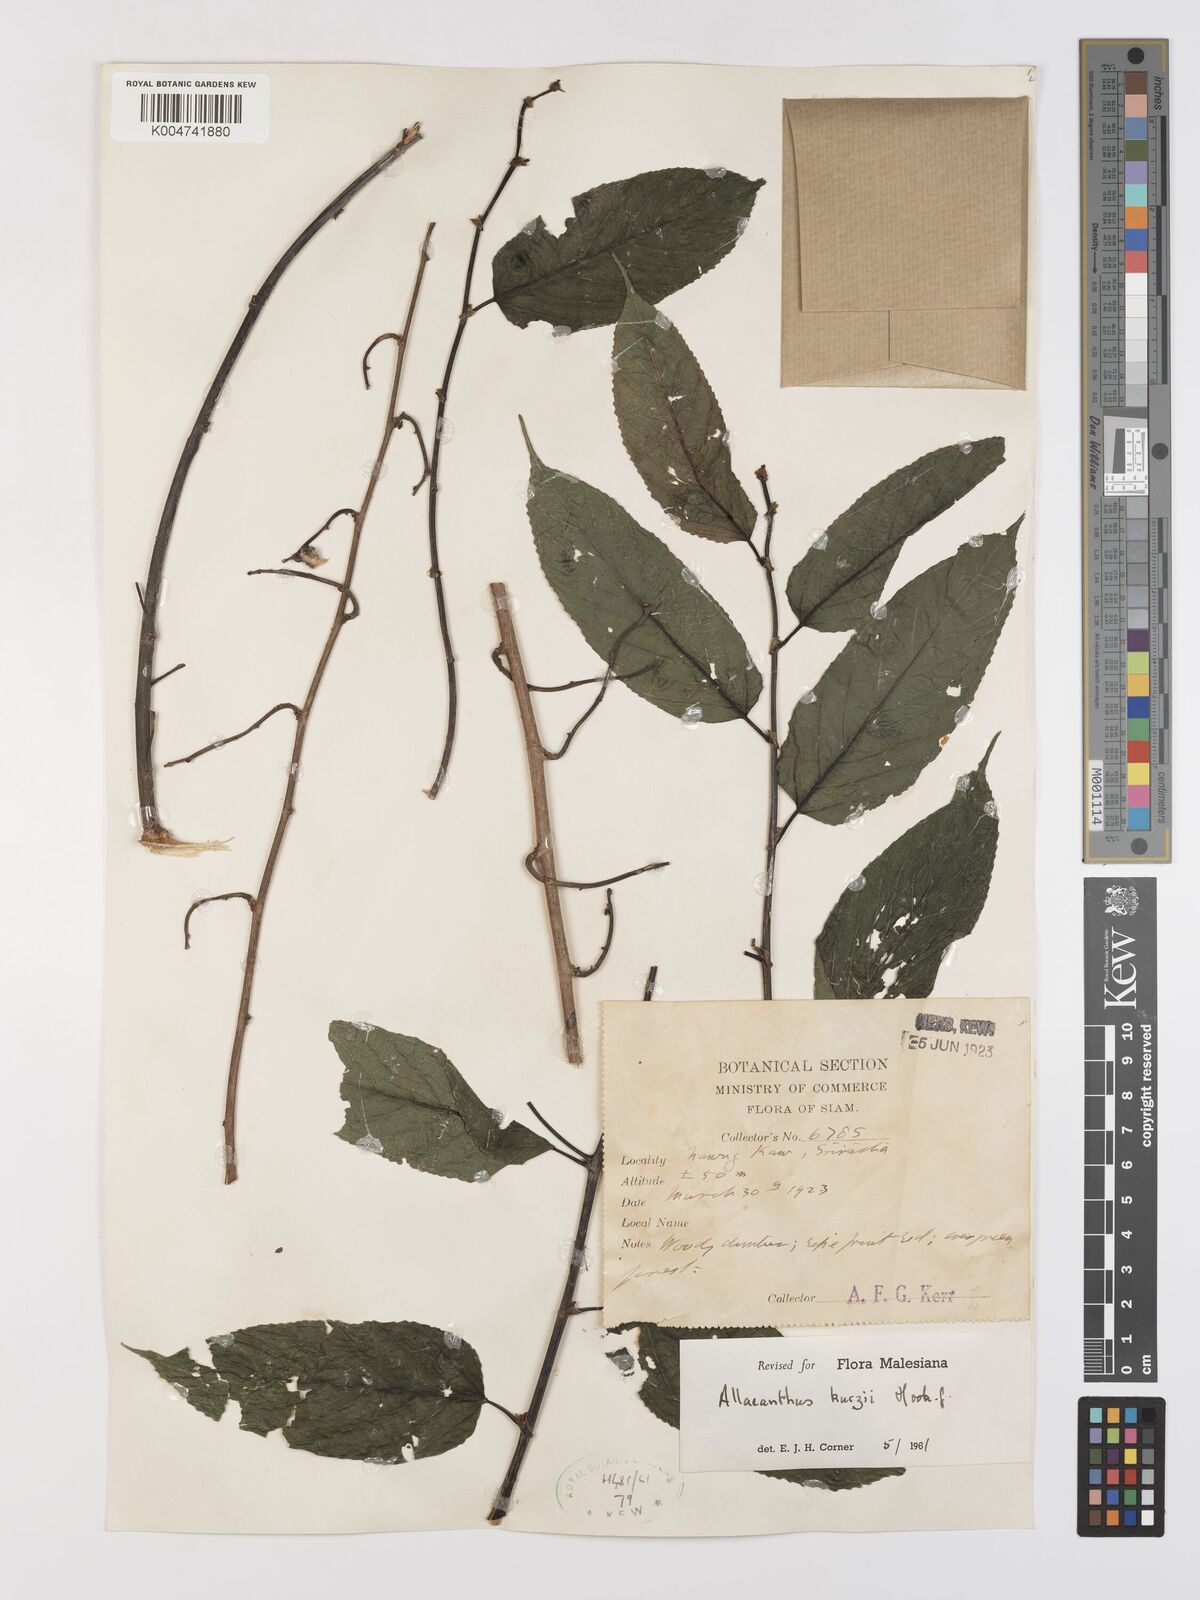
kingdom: Plantae
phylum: Tracheophyta
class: Magnoliopsida
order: Rosales
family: Moraceae
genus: Allaeanthus
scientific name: Allaeanthus kurzii
